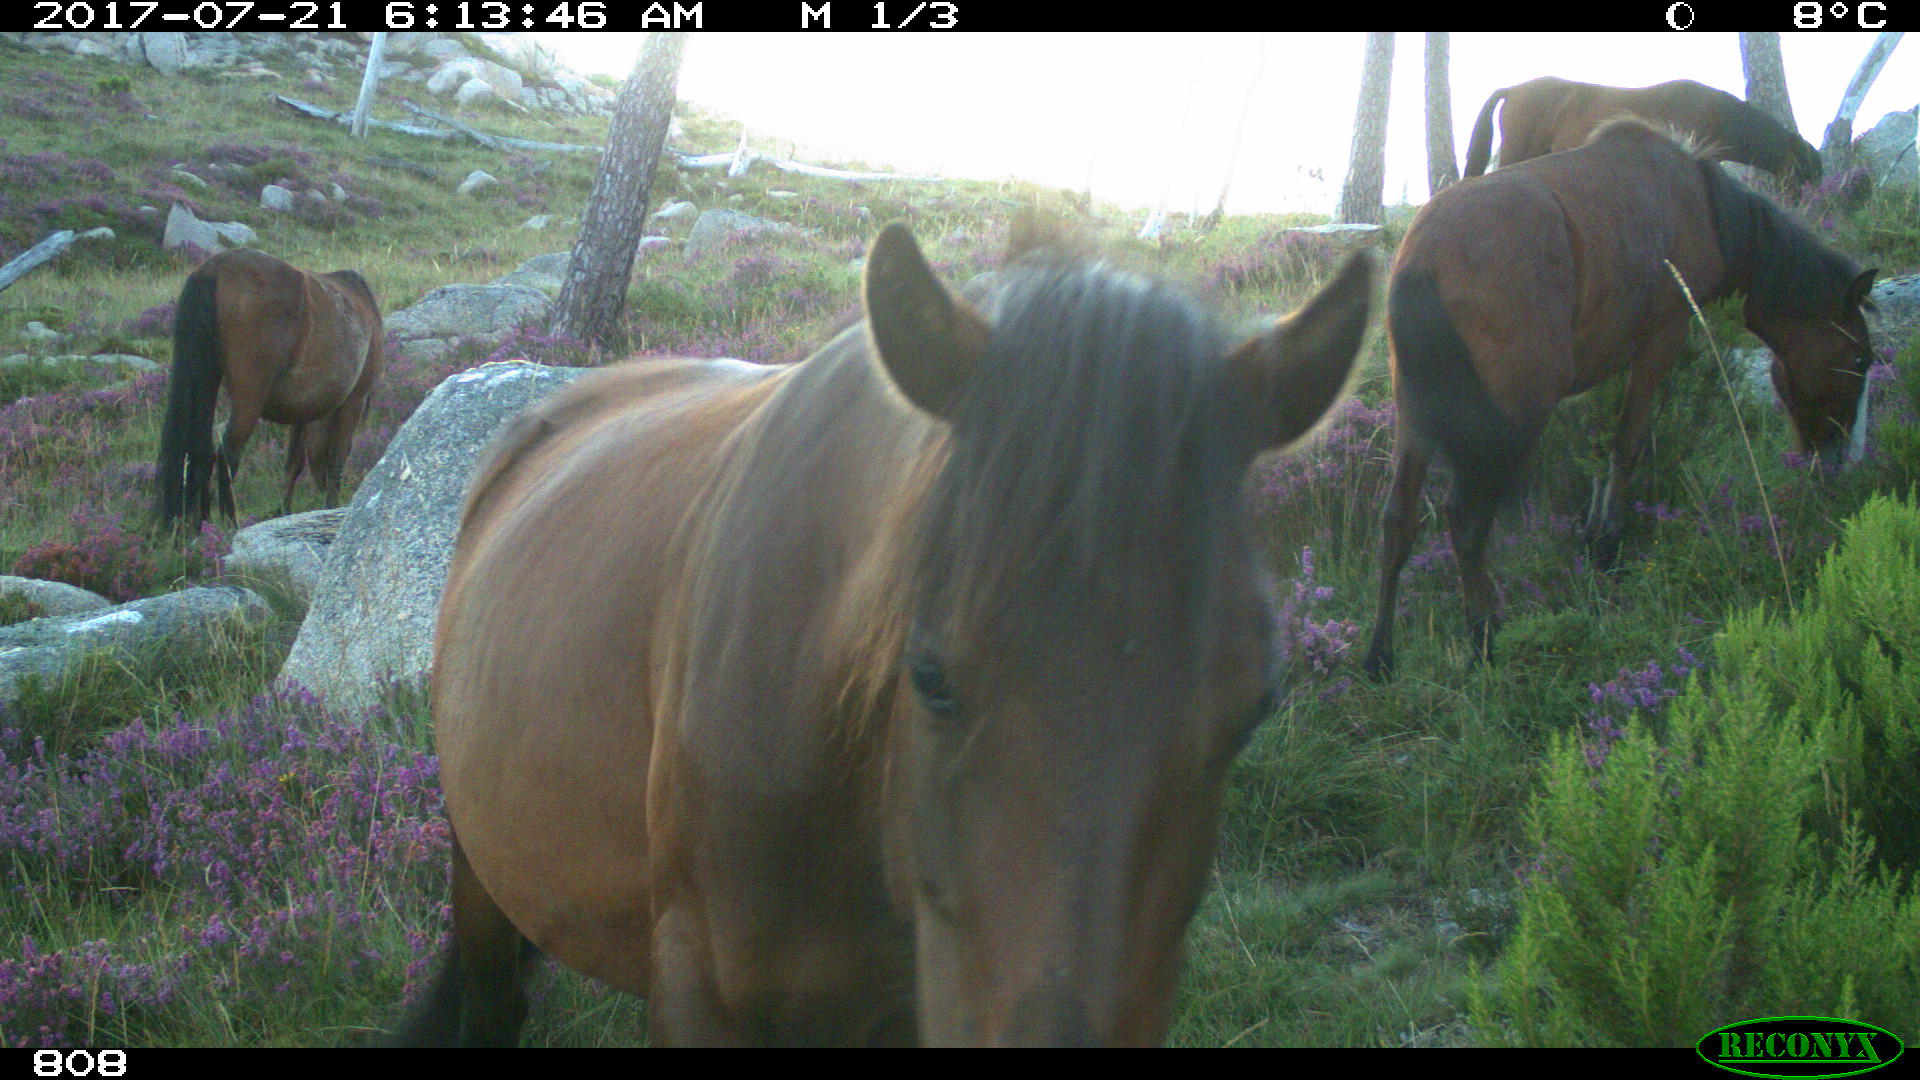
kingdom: Animalia
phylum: Chordata
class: Mammalia
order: Perissodactyla
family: Equidae
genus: Equus
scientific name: Equus caballus
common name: Horse
